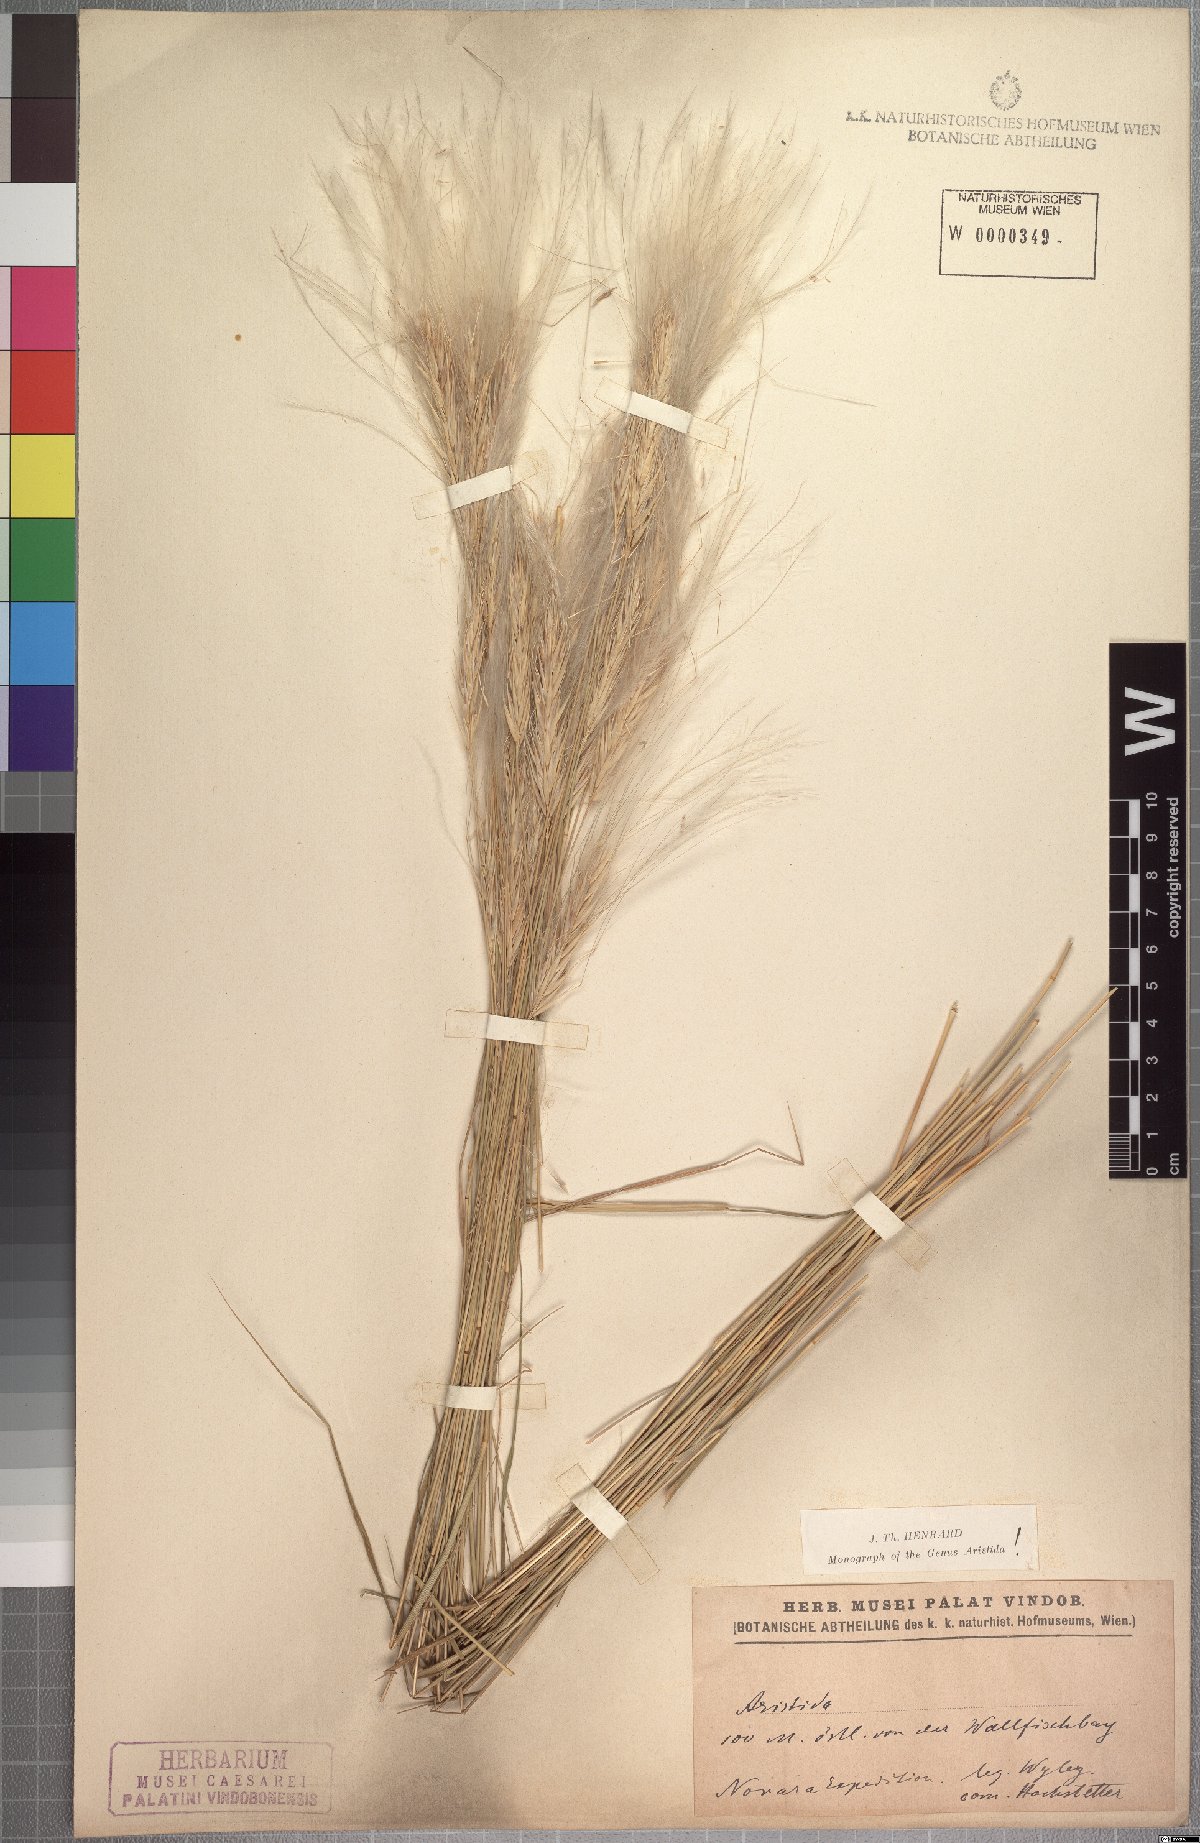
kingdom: Plantae
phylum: Tracheophyta
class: Liliopsida
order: Poales
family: Poaceae
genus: Stipagrostis
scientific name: Stipagrostis hochstetteriana
